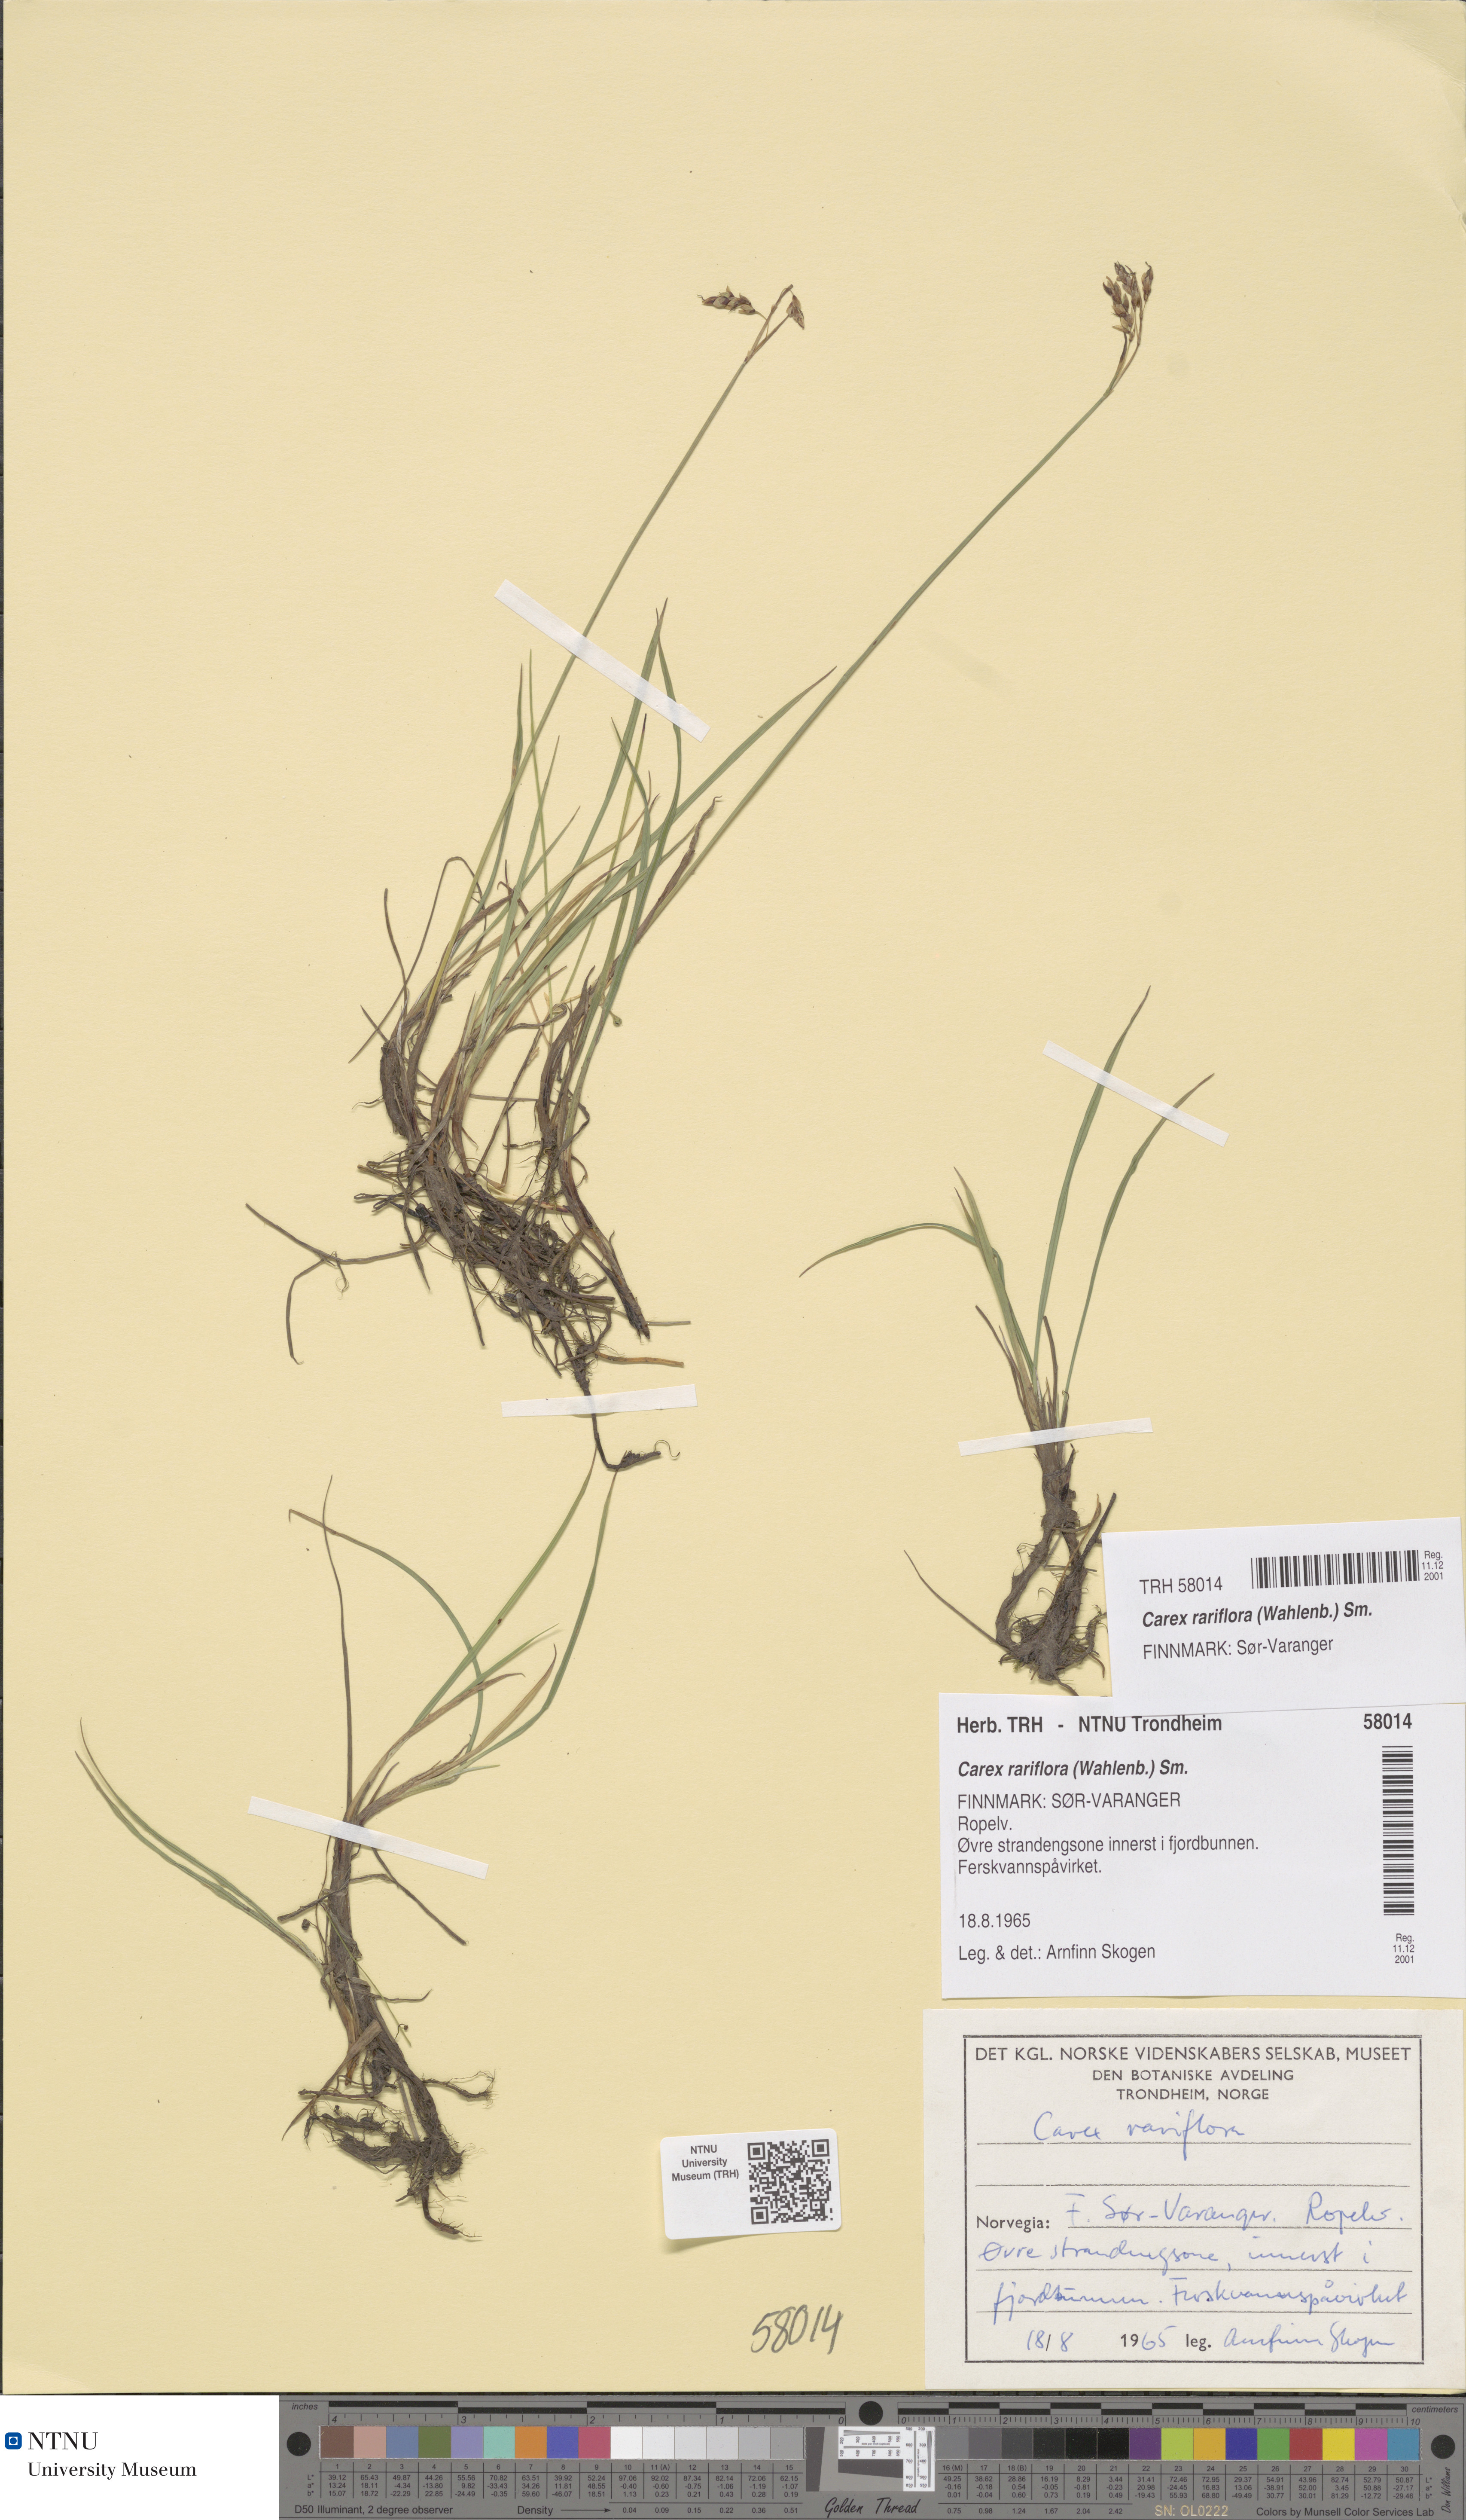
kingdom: Plantae
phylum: Tracheophyta
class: Liliopsida
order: Poales
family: Cyperaceae
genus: Carex
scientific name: Carex rariflora
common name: Loose-flowered alpine sedge
